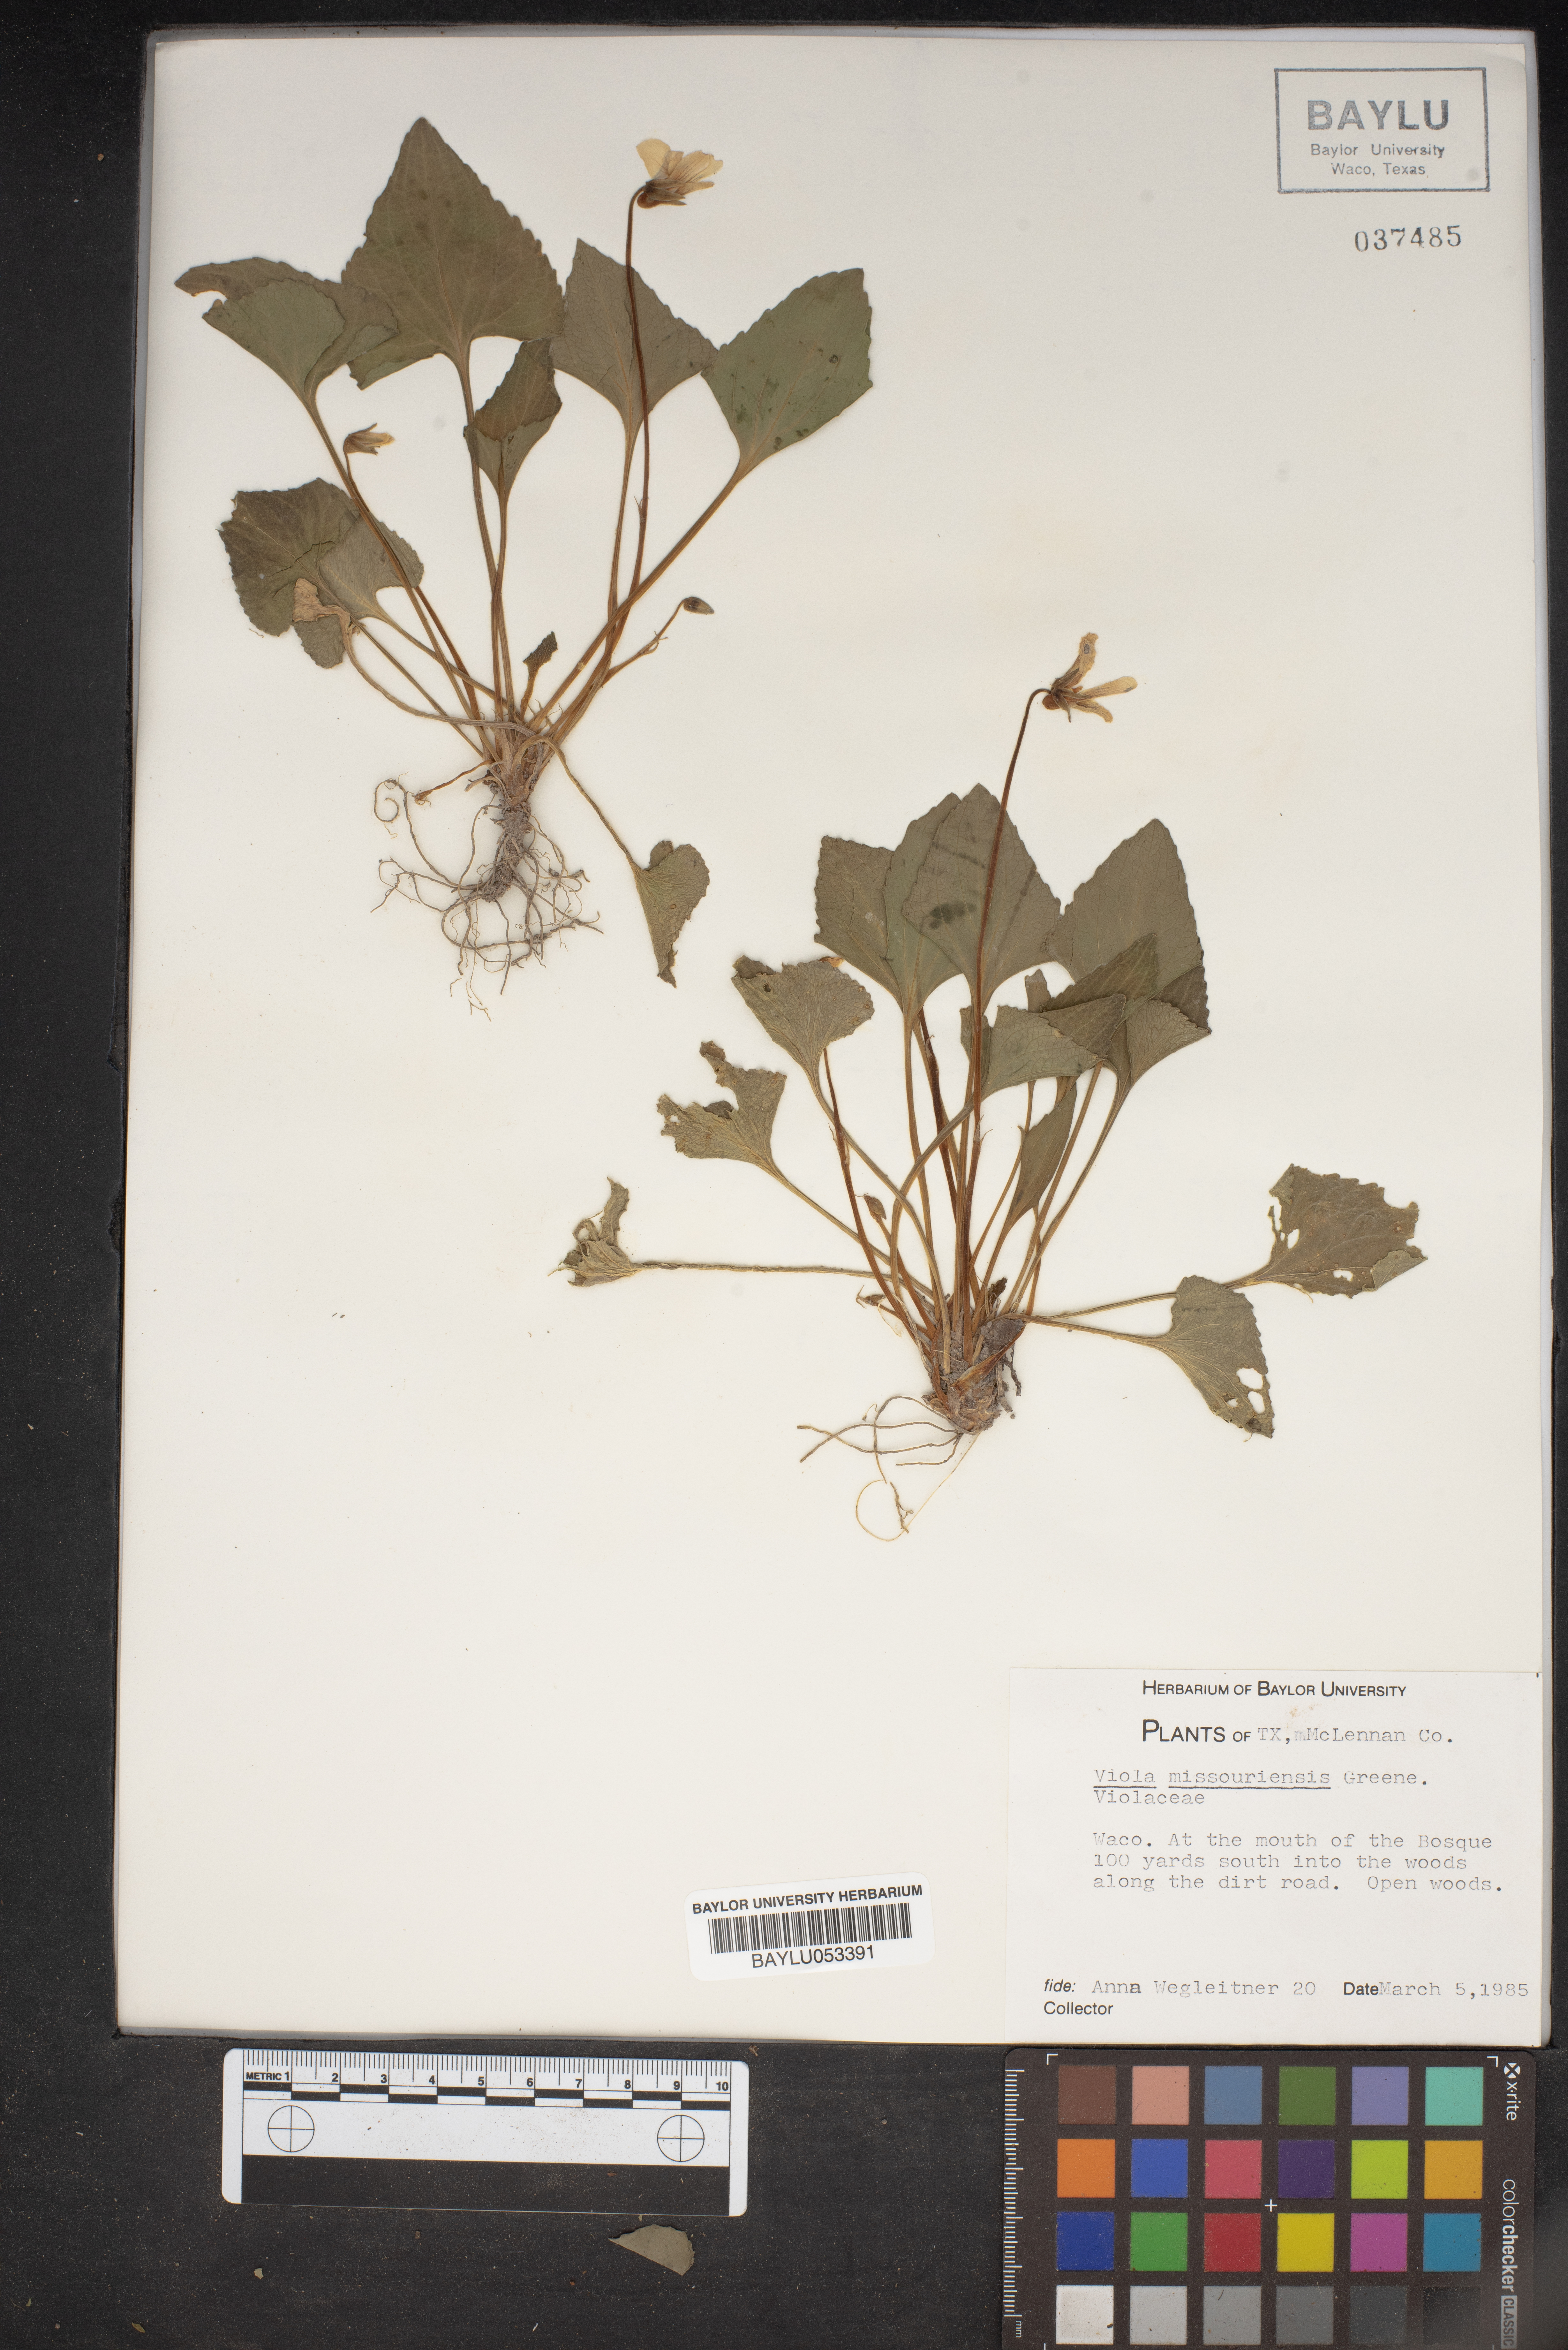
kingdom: Plantae
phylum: Tracheophyta
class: Magnoliopsida
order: Malpighiales
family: Violaceae
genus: Viola
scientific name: Viola missouriensis
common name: Missouri violet
